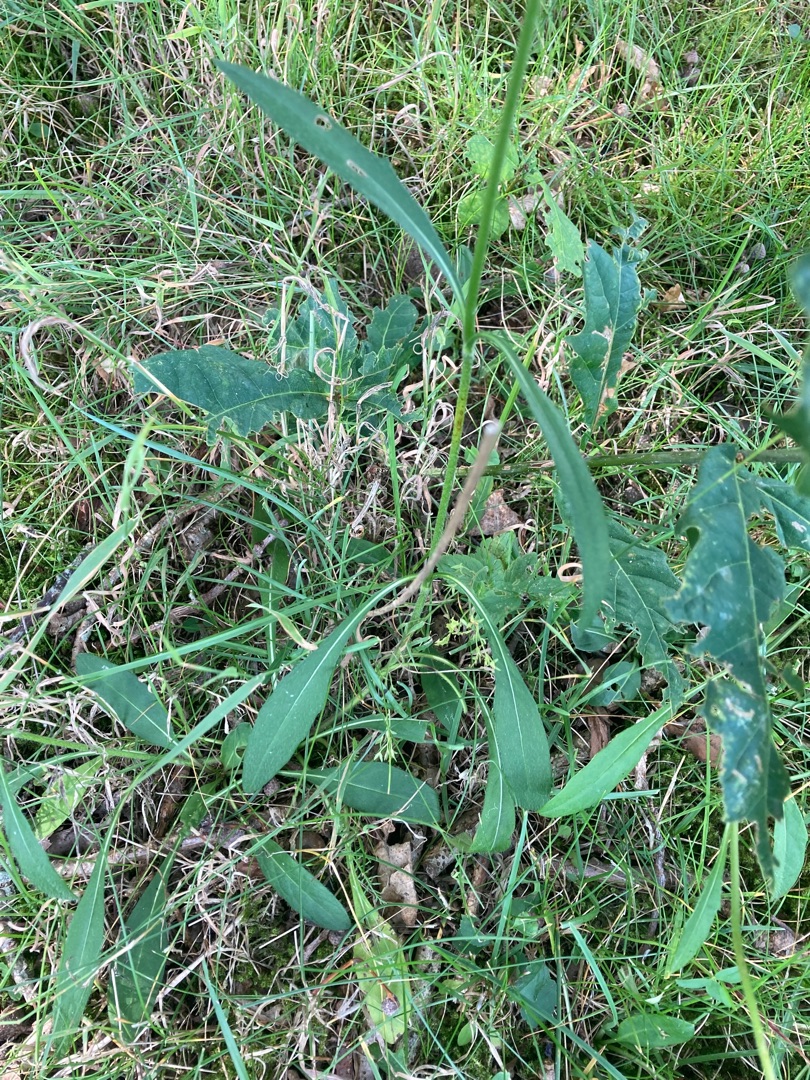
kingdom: Plantae
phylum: Tracheophyta
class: Magnoliopsida
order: Dipsacales
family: Caprifoliaceae
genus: Succisa
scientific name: Succisa pratensis
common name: Djævelsbid
